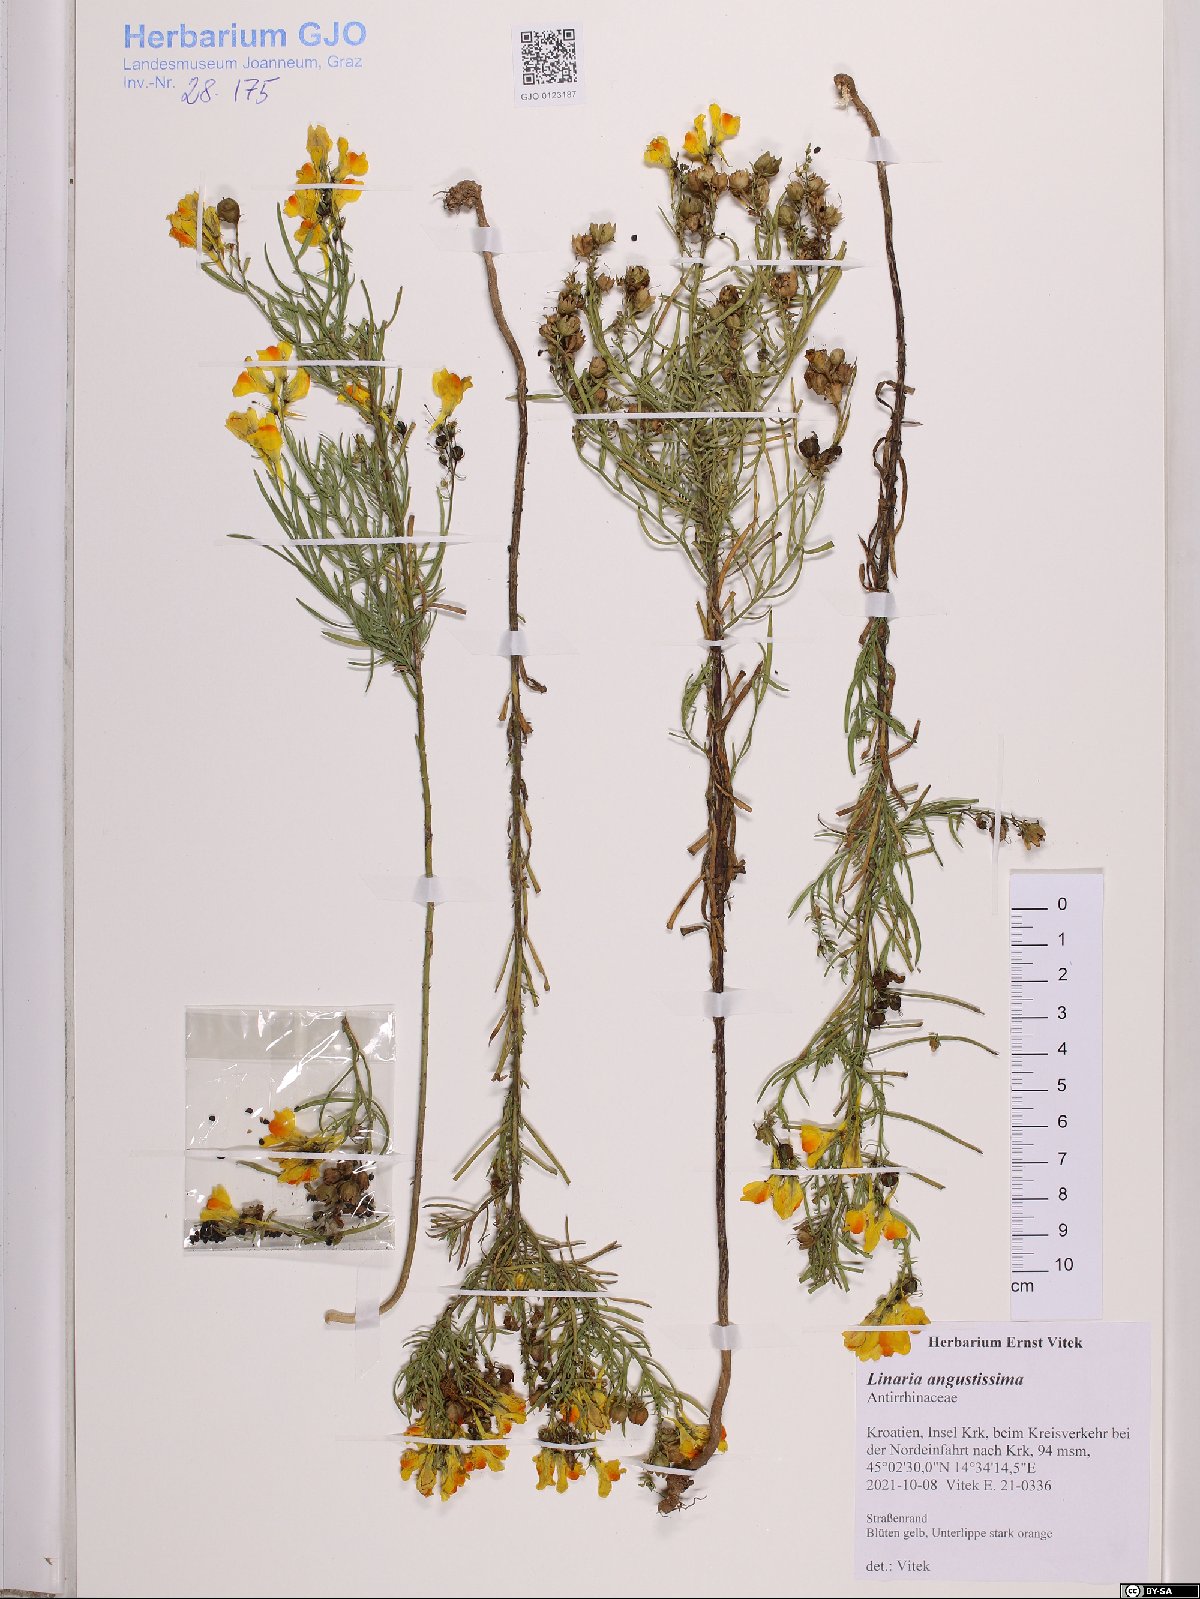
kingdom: Plantae
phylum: Tracheophyta
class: Magnoliopsida
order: Lamiales
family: Plantaginaceae
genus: Linaria
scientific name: Linaria angustissima
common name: Italian toadflax
